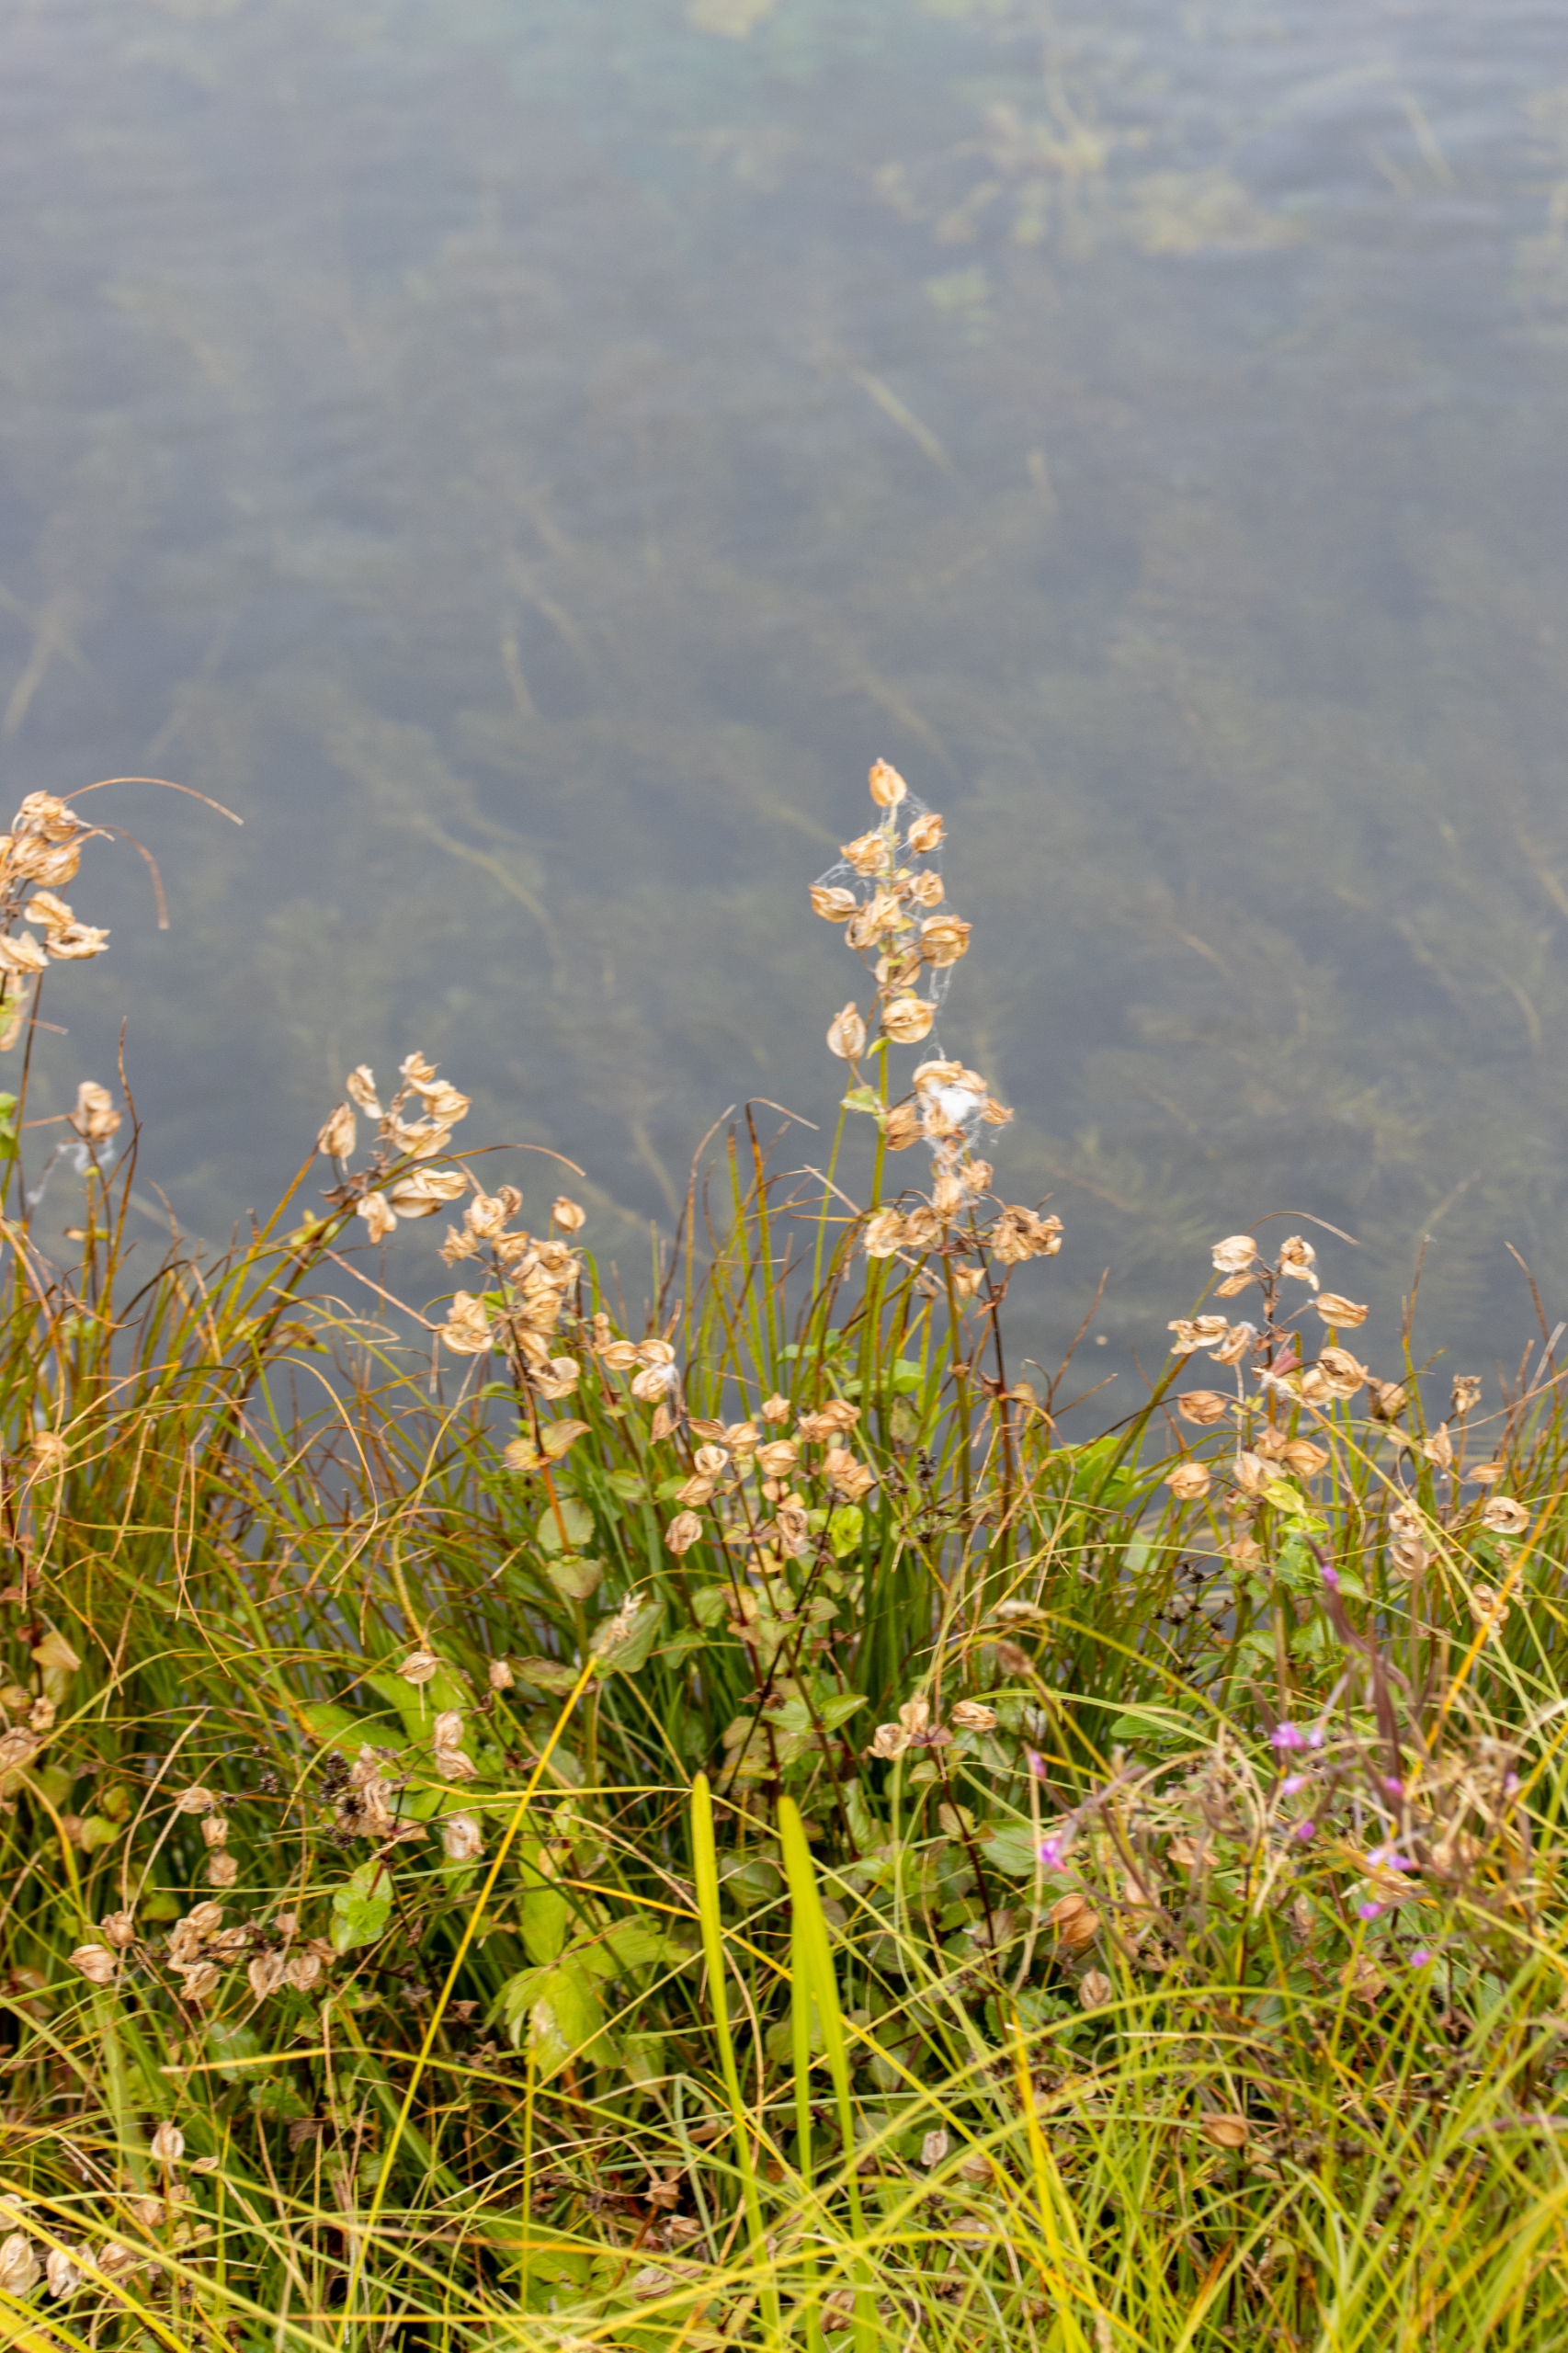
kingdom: Plantae
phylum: Tracheophyta
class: Magnoliopsida
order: Lamiales
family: Phrymaceae
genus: Erythranthe
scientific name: Erythranthe guttata
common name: Abeblomst
